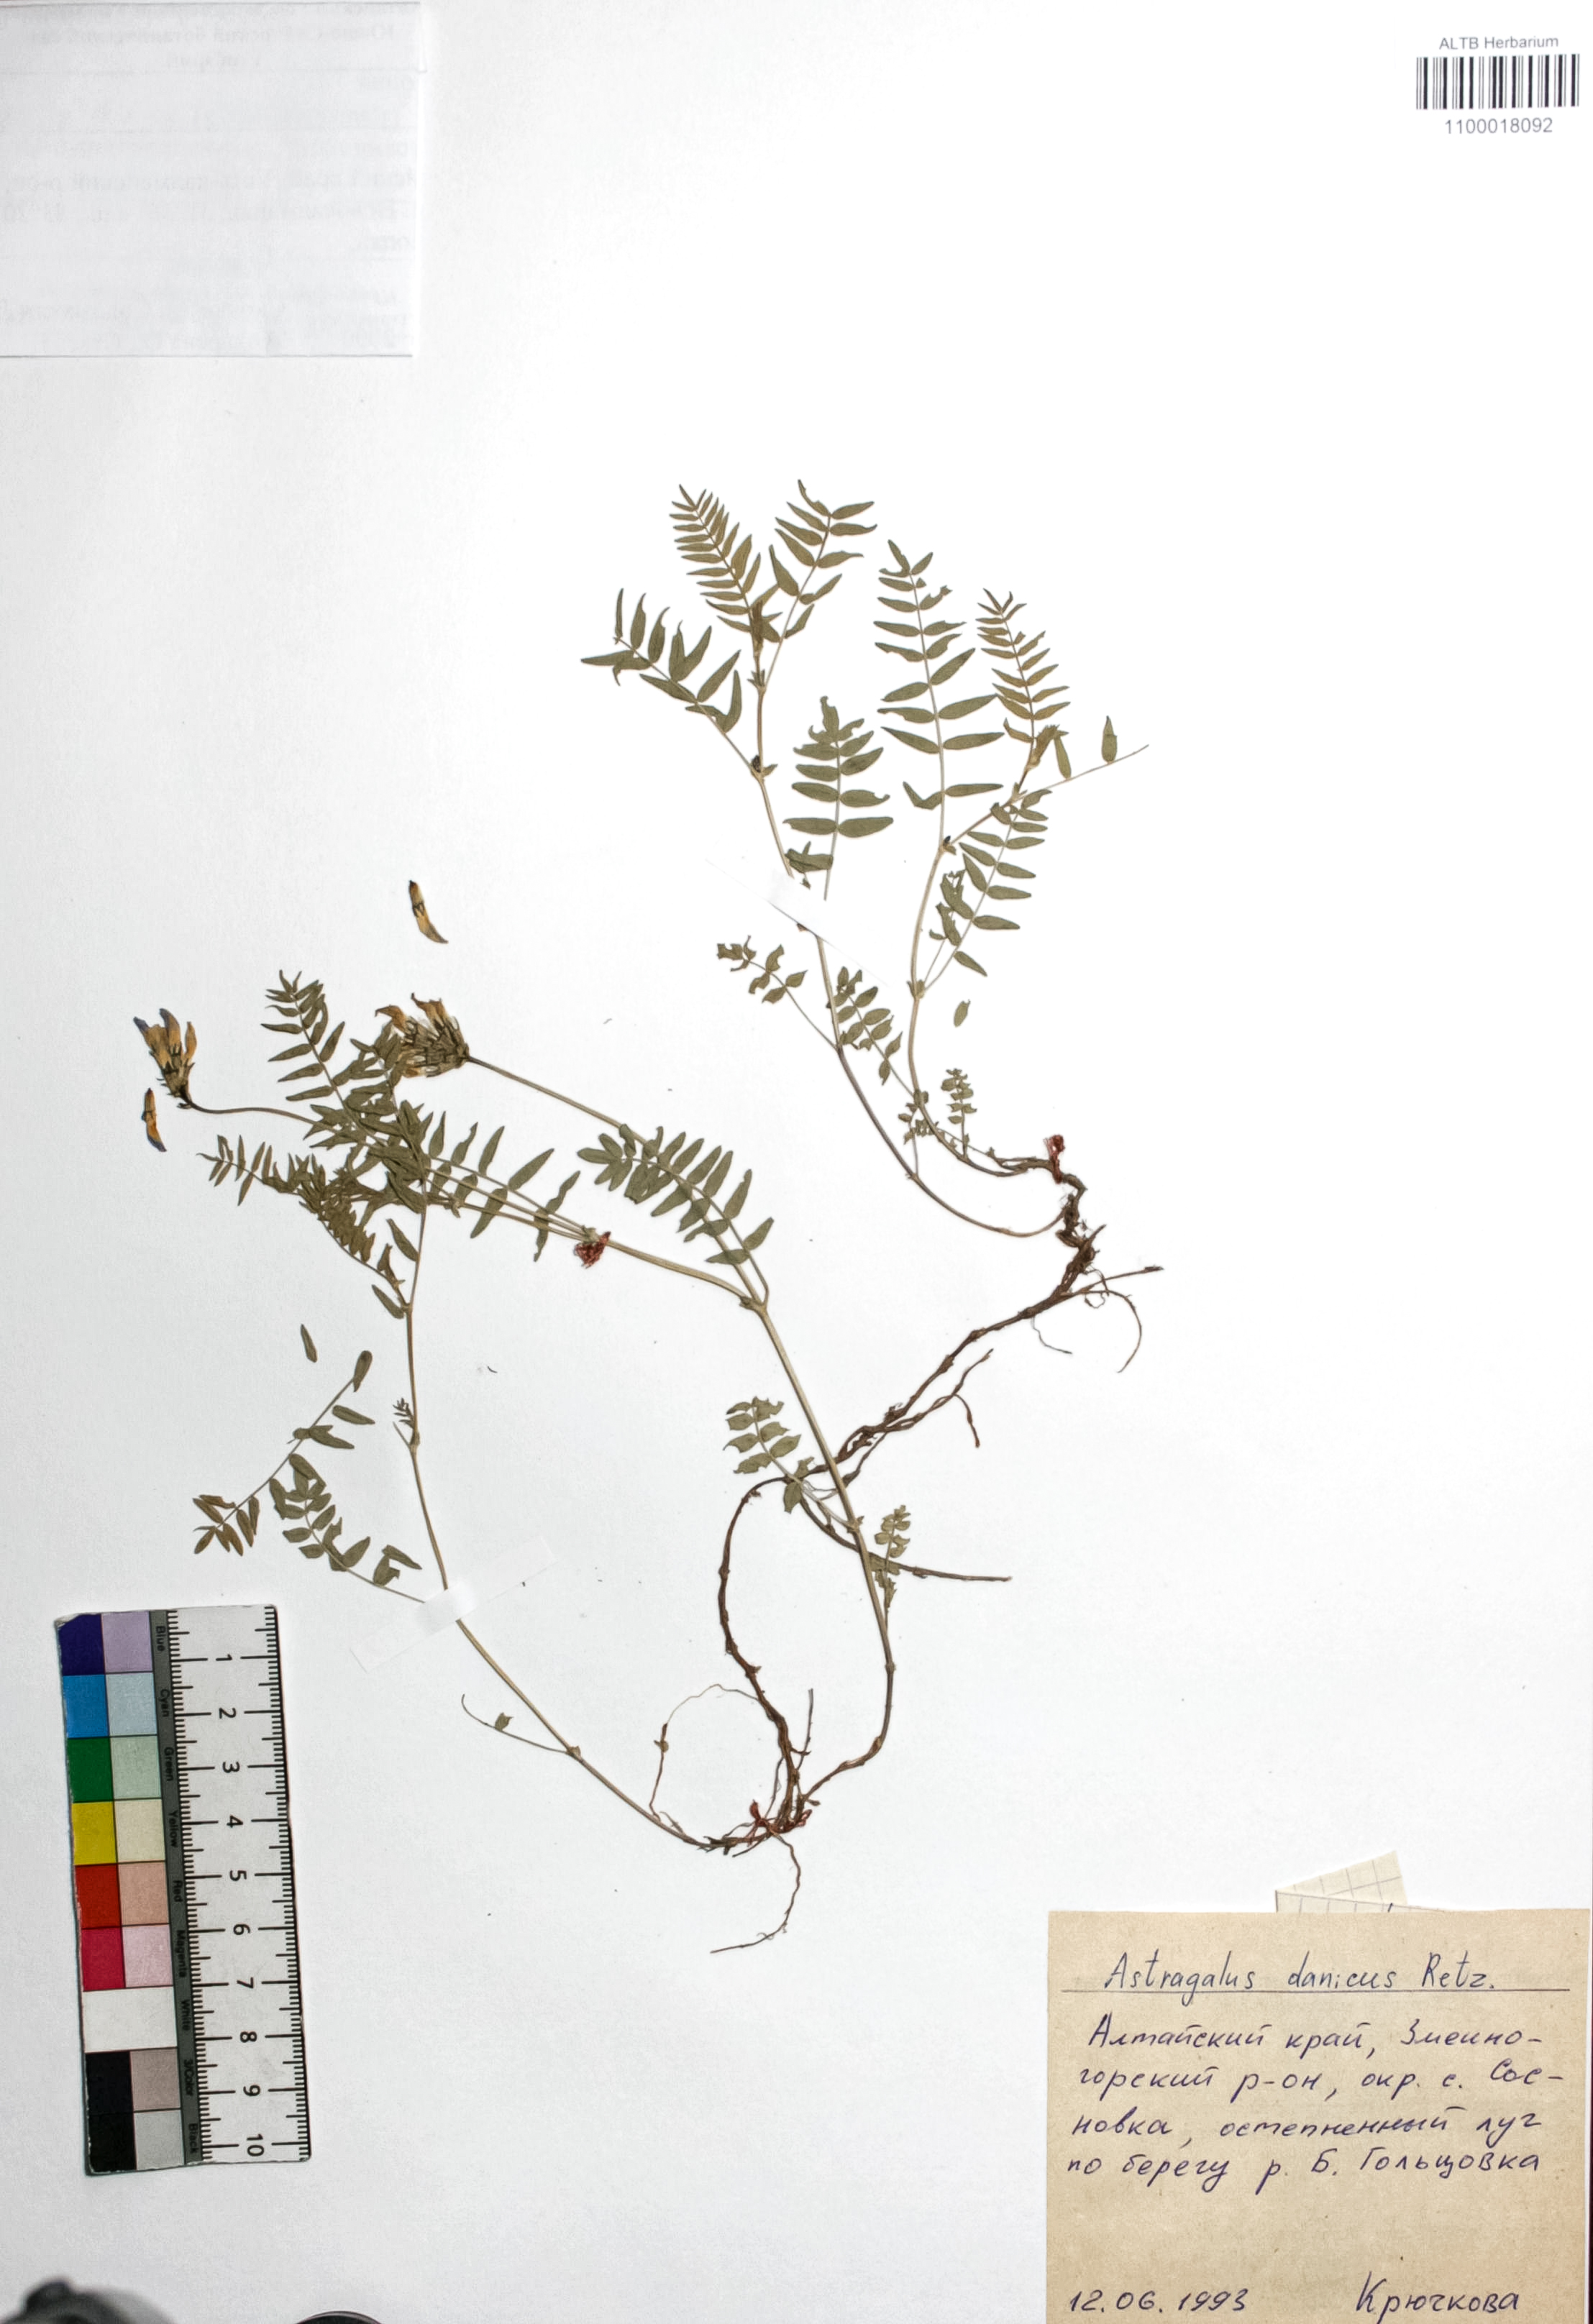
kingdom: Plantae
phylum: Tracheophyta
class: Magnoliopsida
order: Fabales
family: Fabaceae
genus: Astragalus
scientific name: Astragalus danicus
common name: Purple milk-vetch
